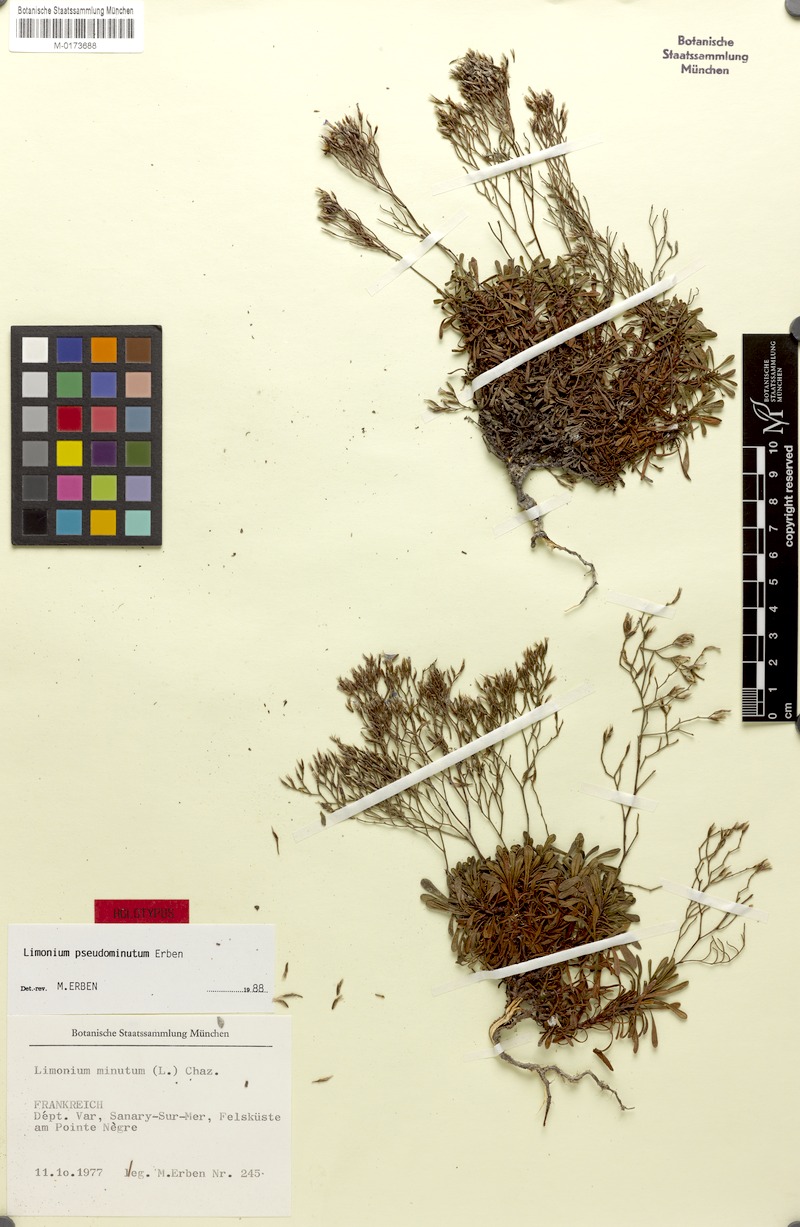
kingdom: Plantae
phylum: Tracheophyta
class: Magnoliopsida
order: Caryophyllales
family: Plumbaginaceae
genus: Limonium
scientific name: Limonium pseudominutum
